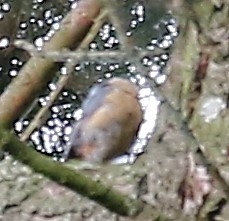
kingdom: Animalia
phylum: Chordata
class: Aves
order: Passeriformes
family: Sittidae
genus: Sitta
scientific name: Sitta europaea
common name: Spætmejse
